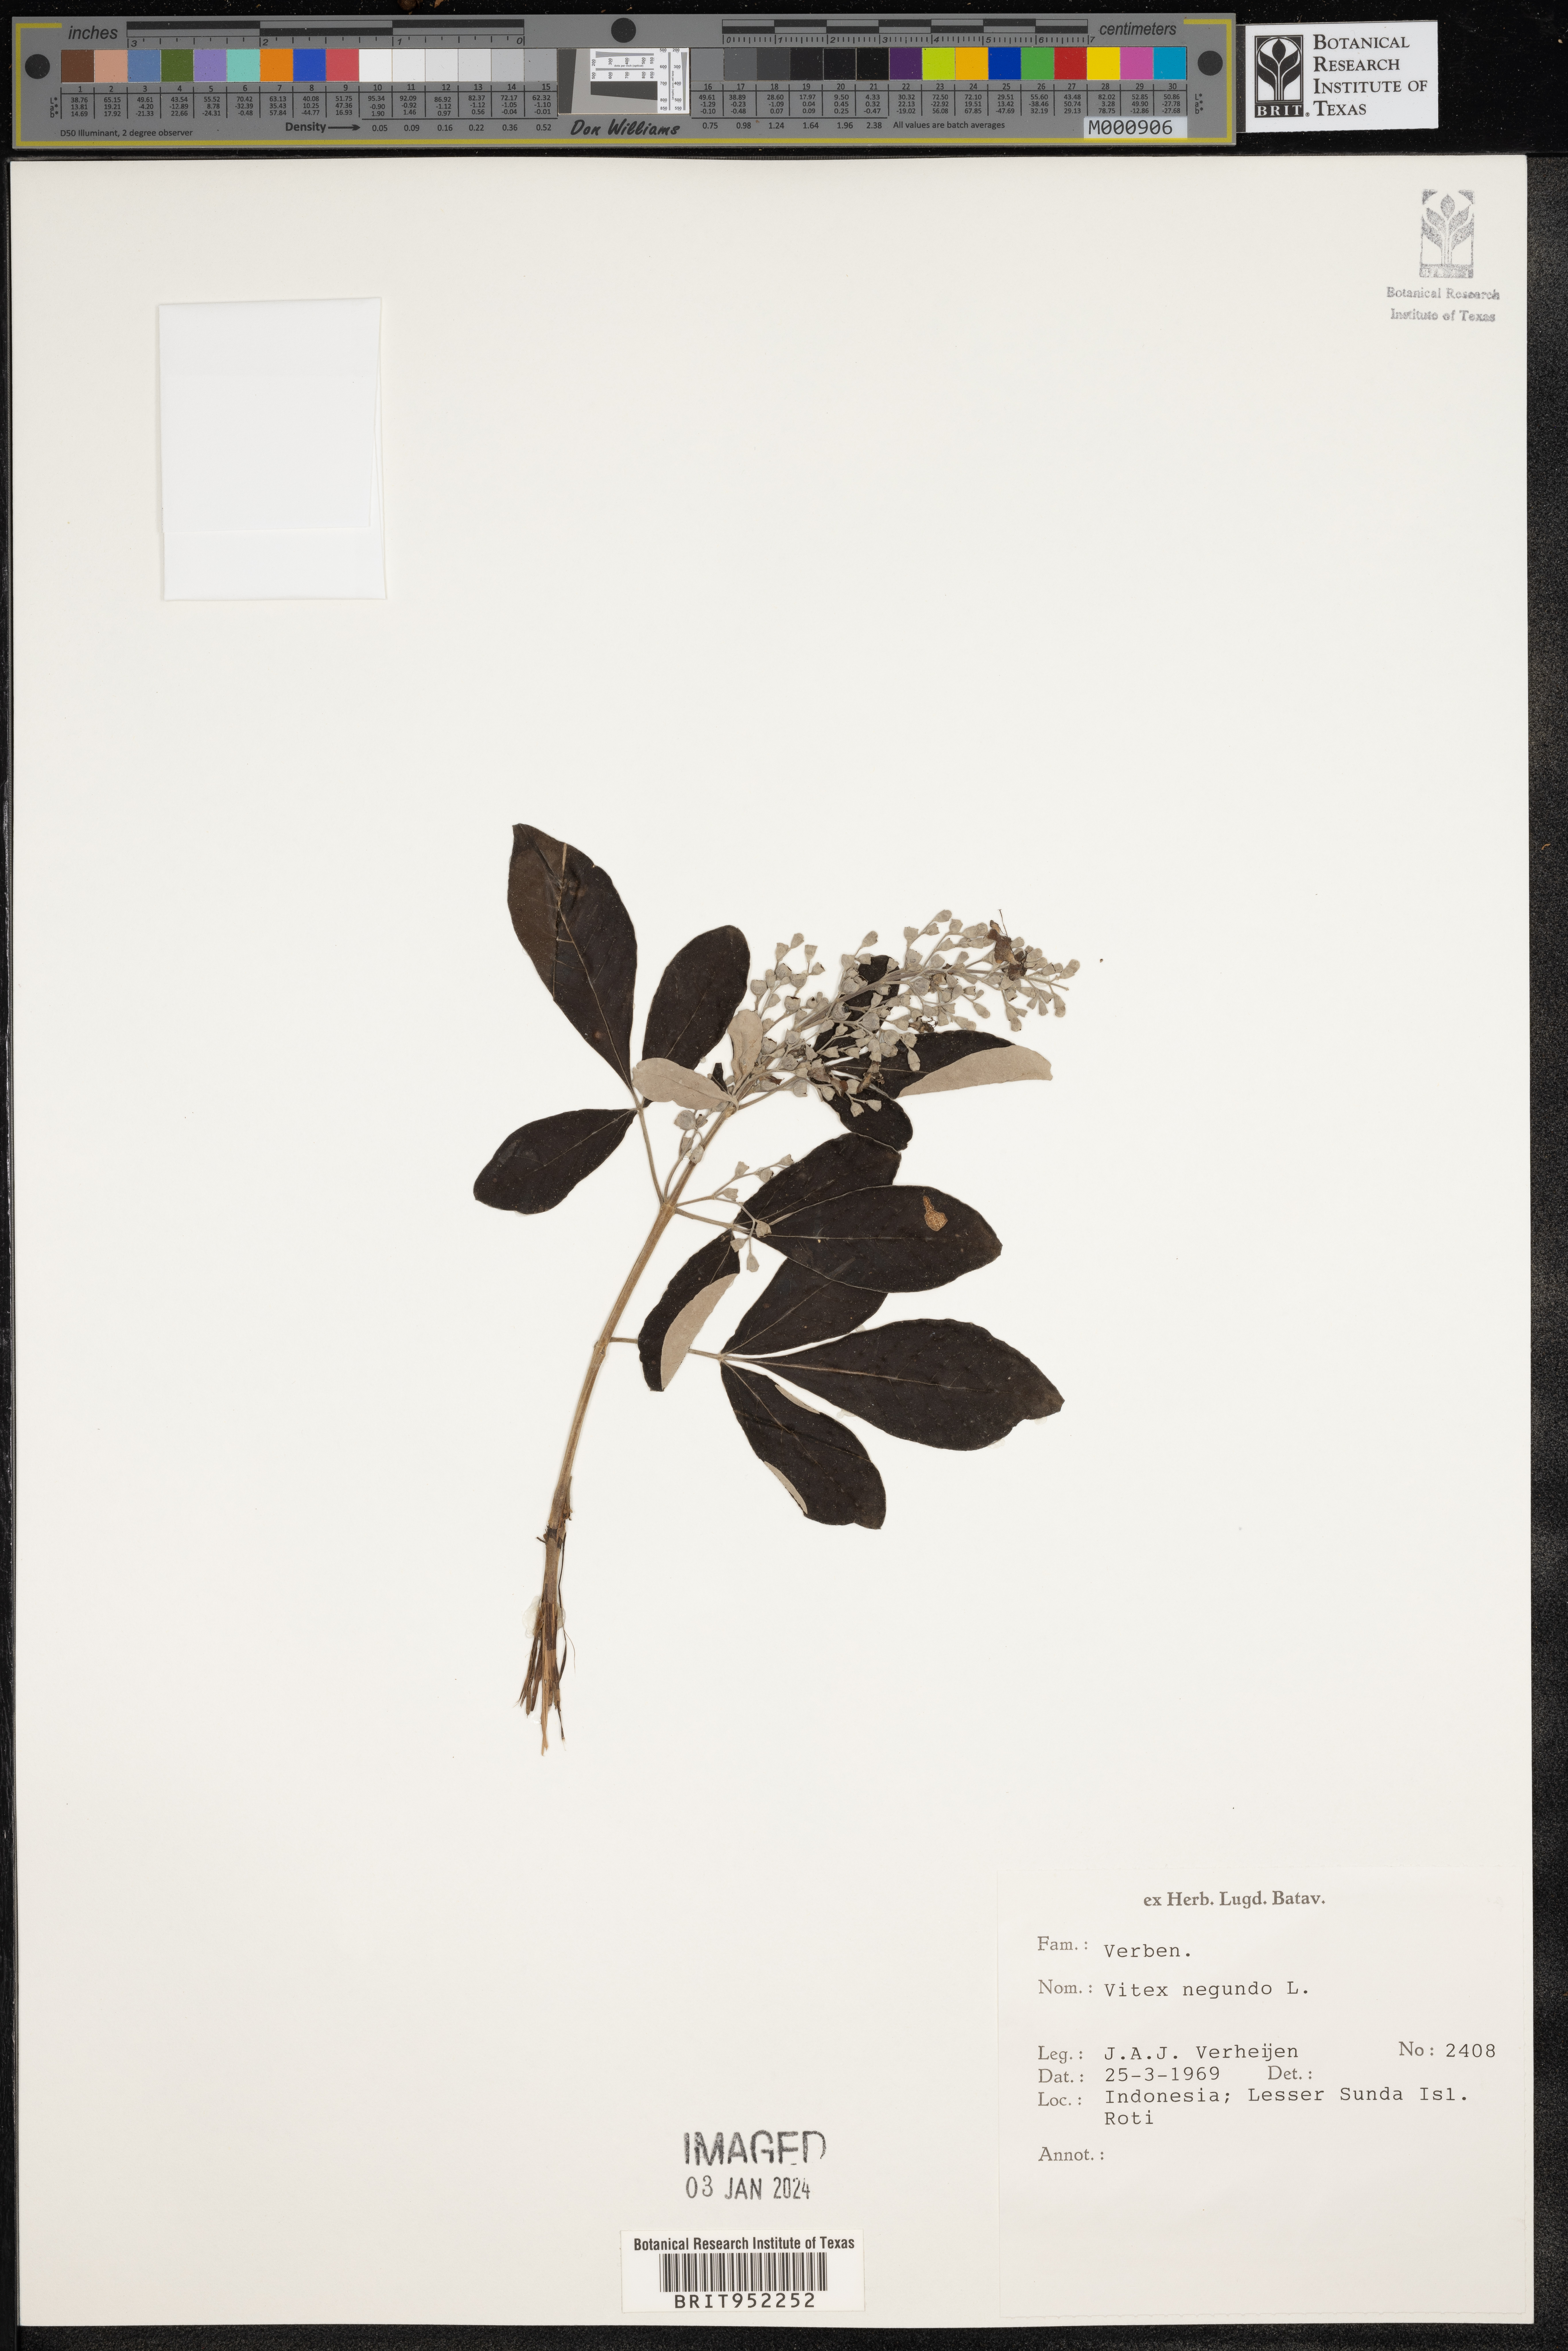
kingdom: Plantae
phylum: Tracheophyta
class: Magnoliopsida
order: Lamiales
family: Lamiaceae
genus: Vitex
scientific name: Vitex
